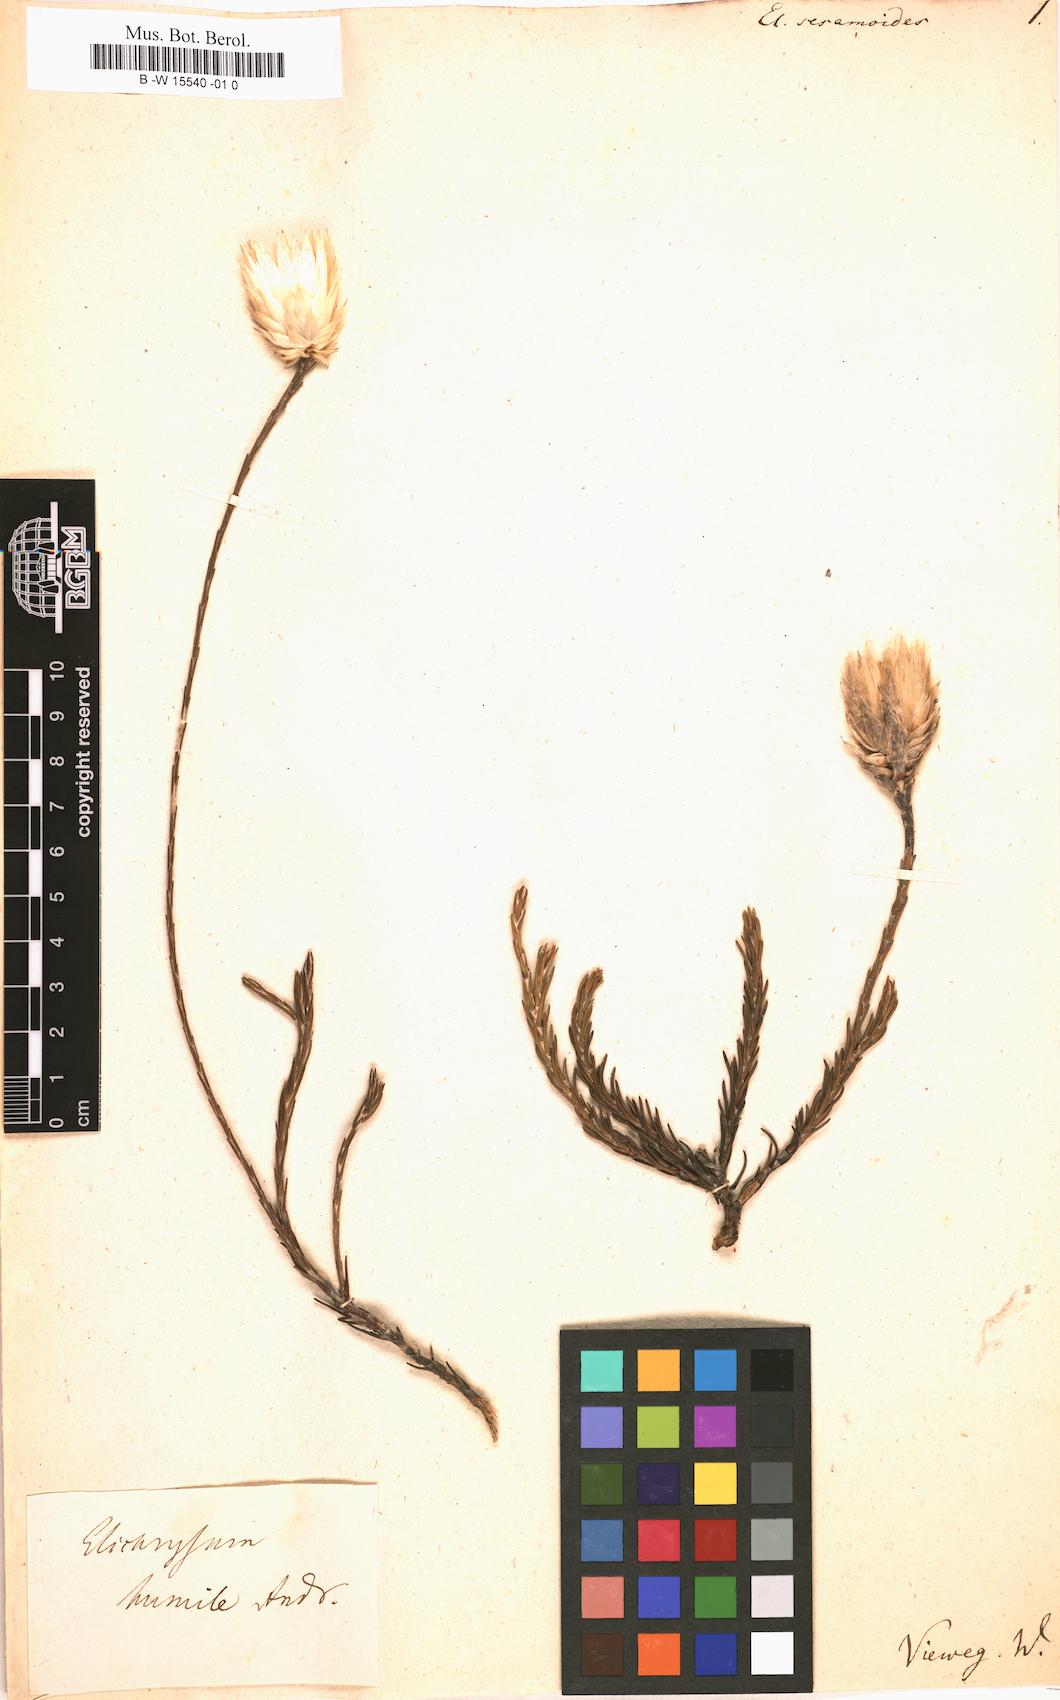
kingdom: Plantae
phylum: Tracheophyta
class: Magnoliopsida
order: Asterales
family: Asteraceae
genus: Helichrysum
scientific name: Helichrysum
